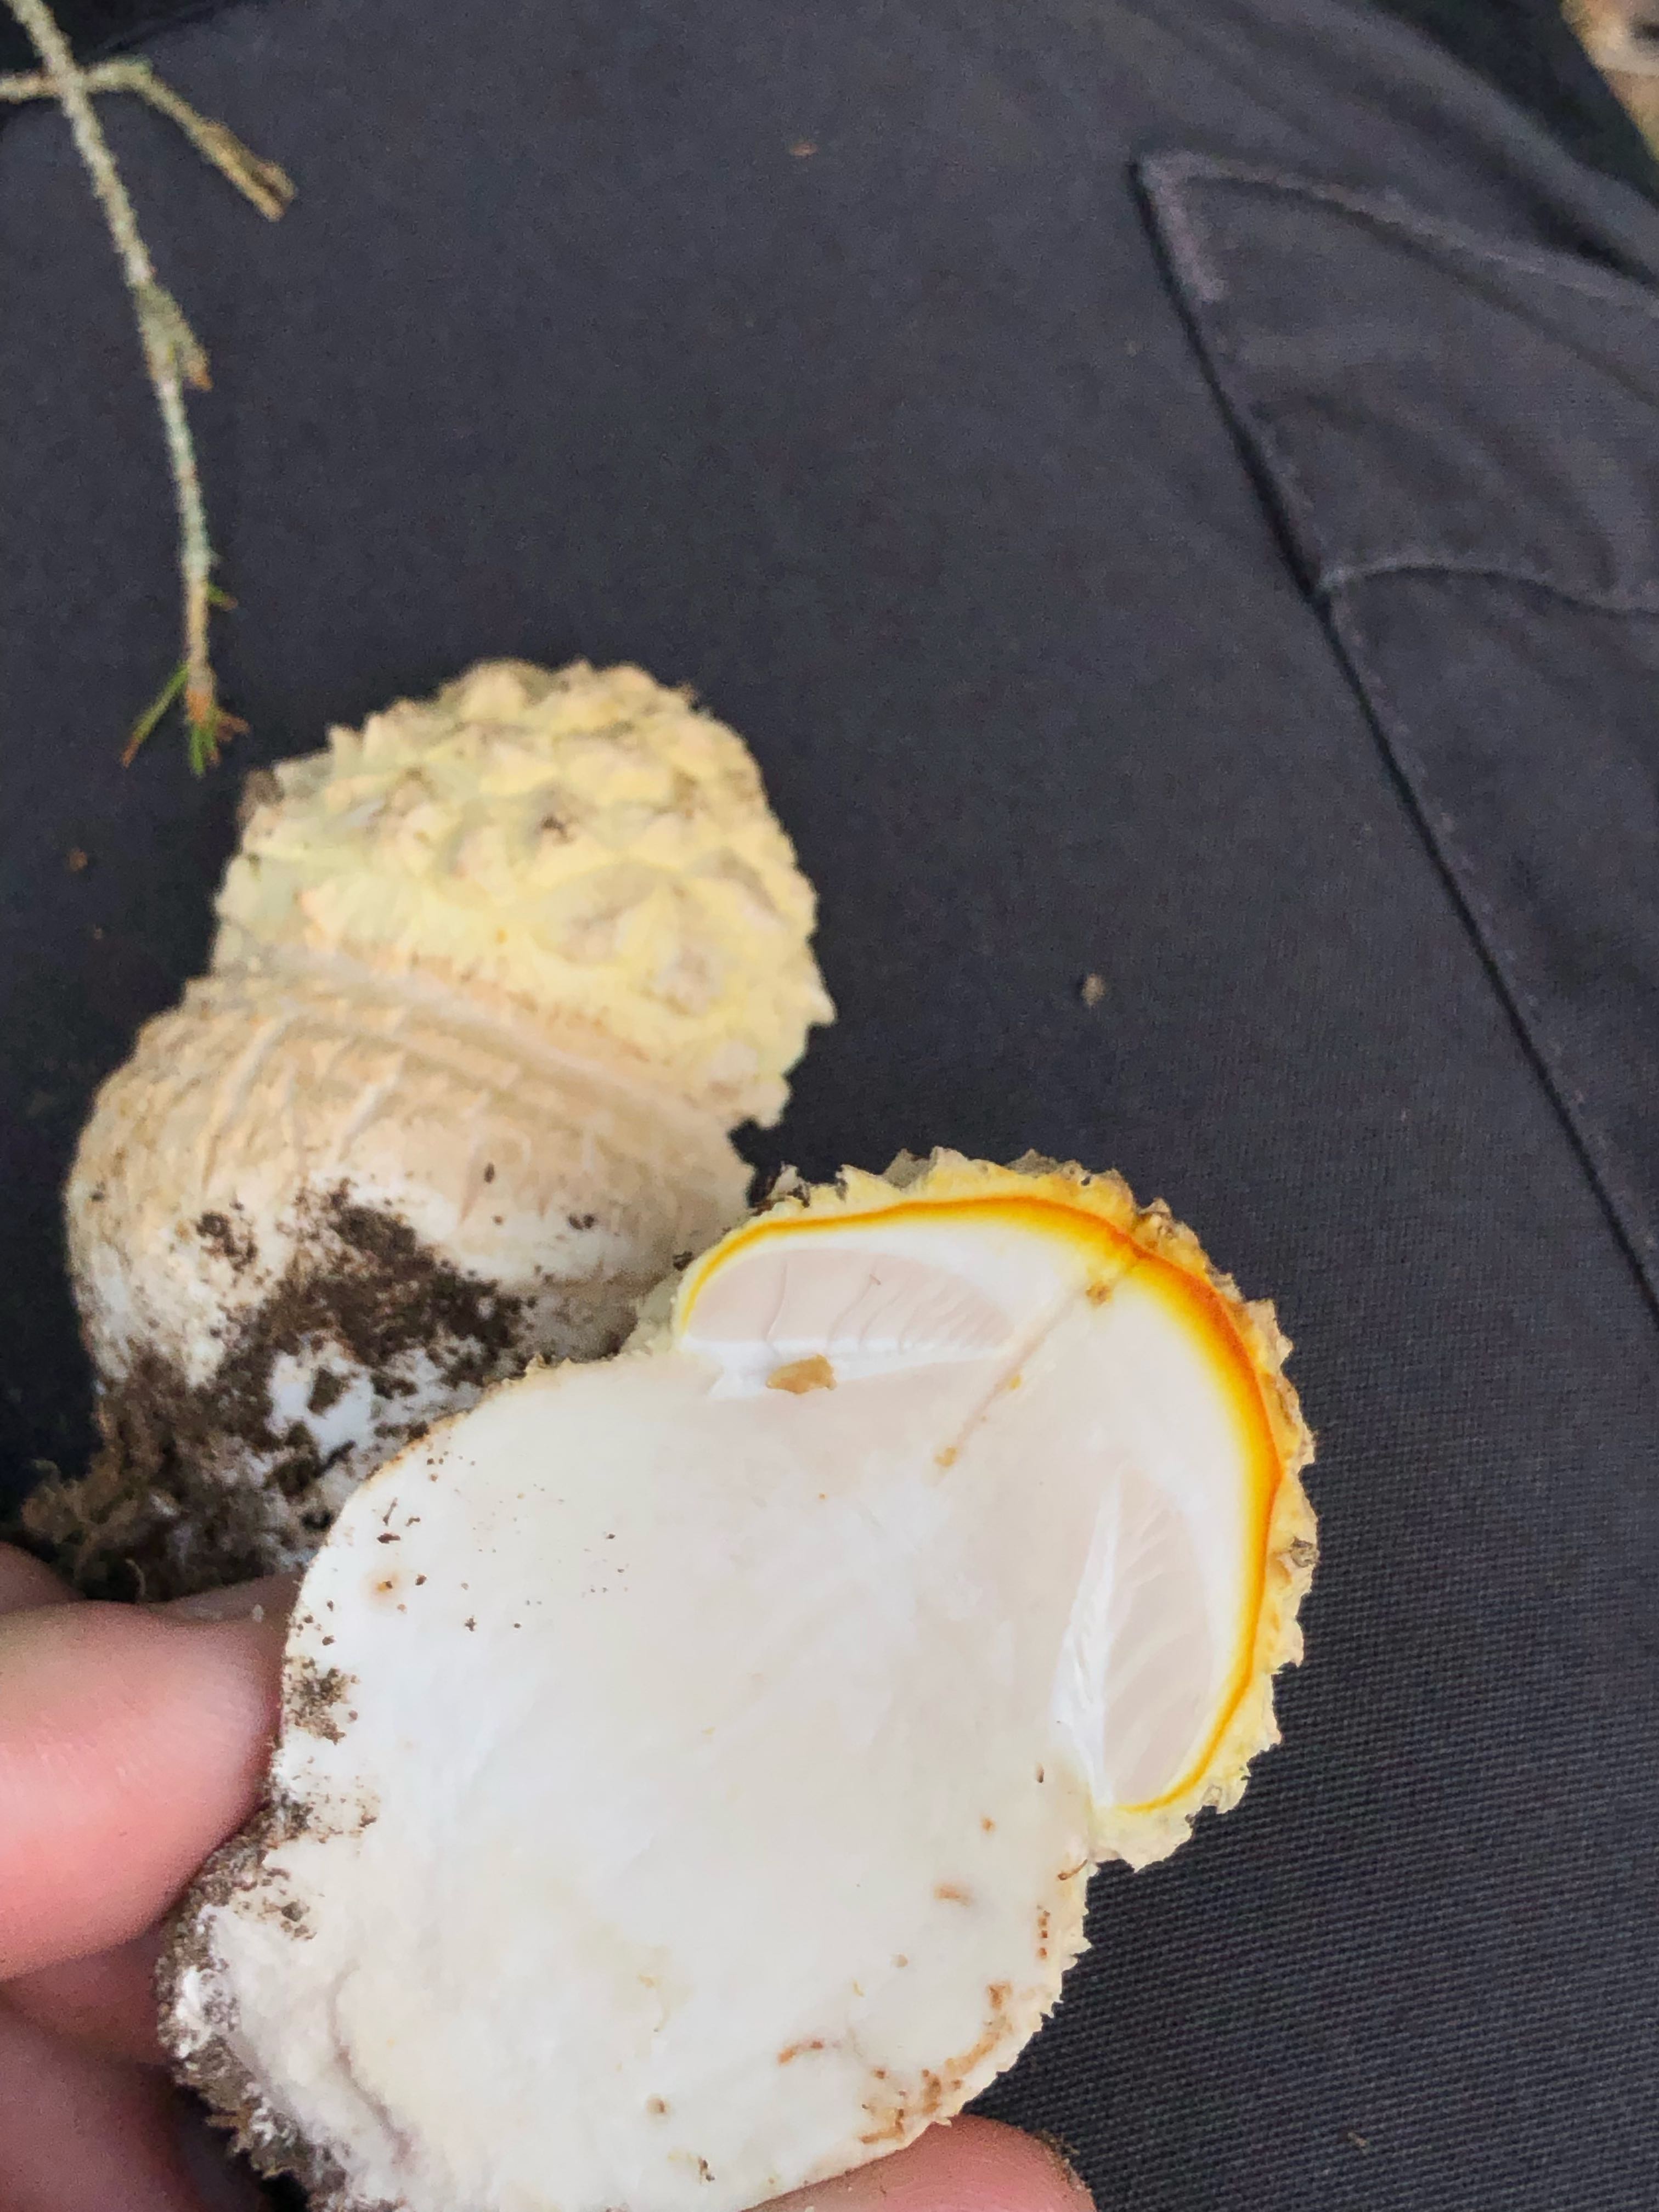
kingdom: Fungi
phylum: Basidiomycota
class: Agaricomycetes
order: Agaricales
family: Amanitaceae
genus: Amanita
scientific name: Amanita muscaria
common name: rød fluesvamp
